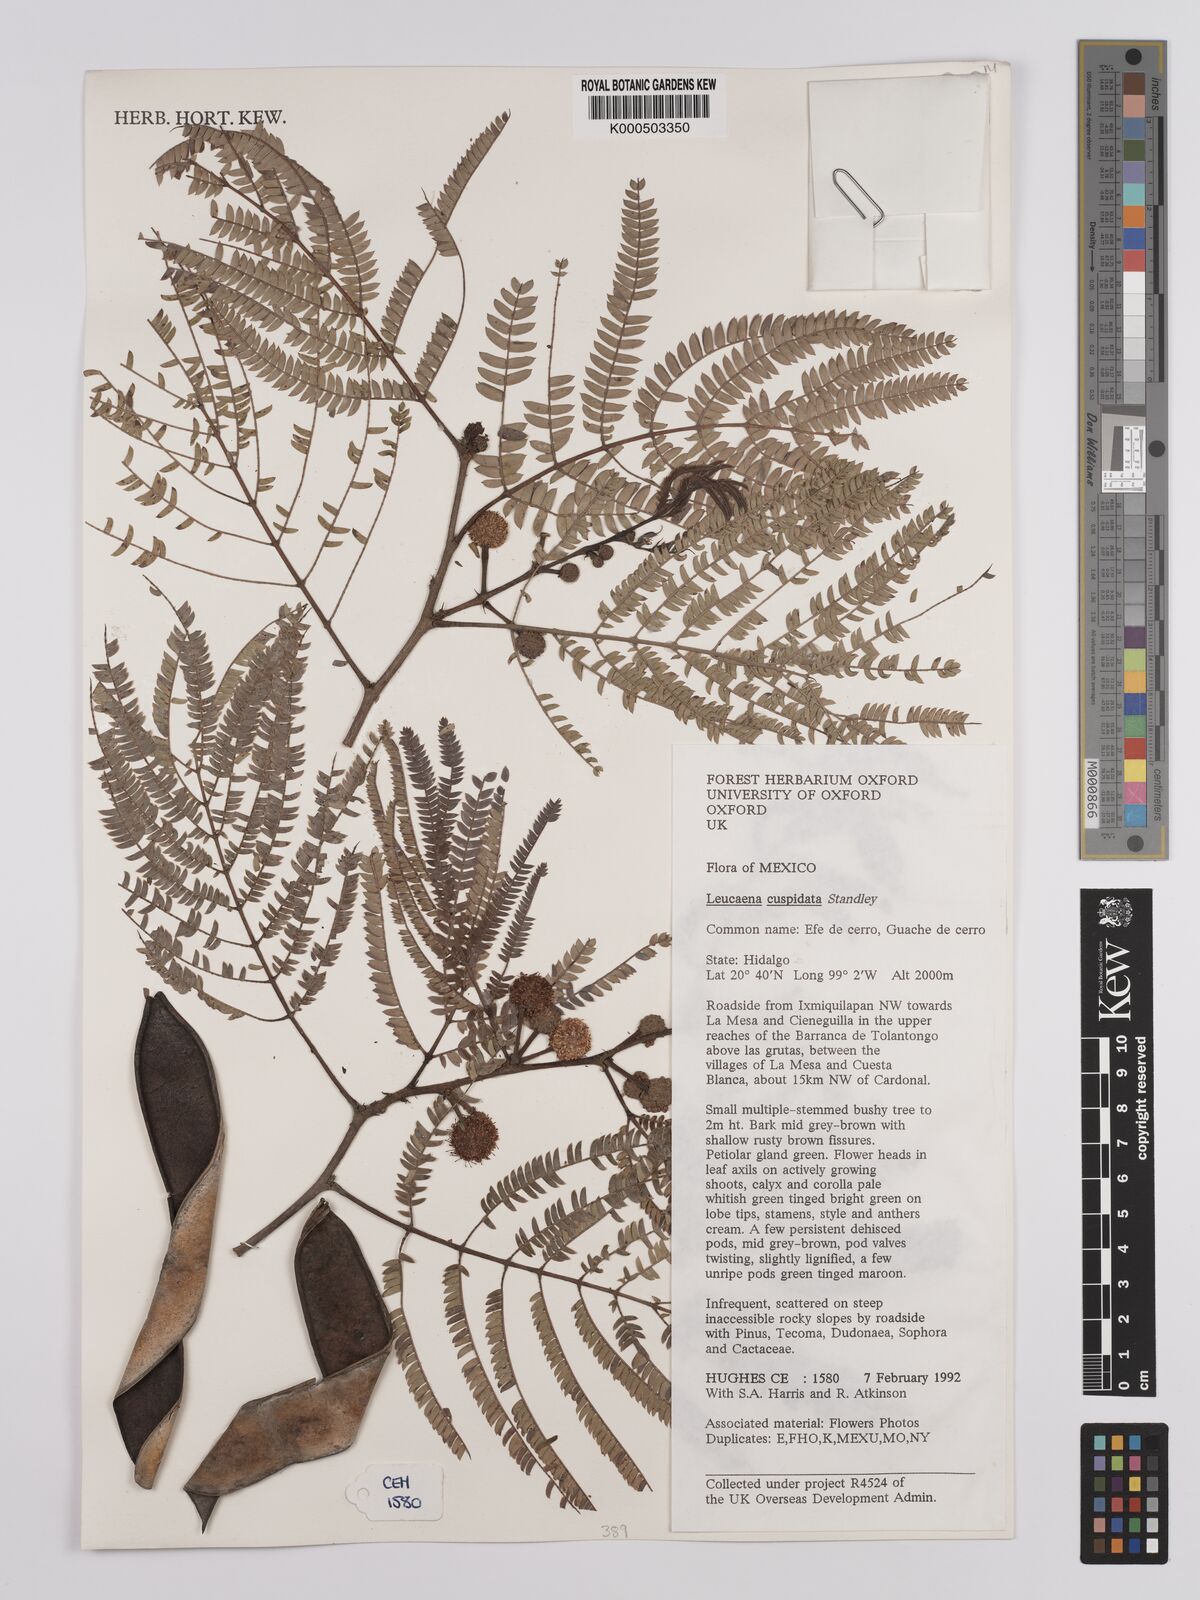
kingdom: Plantae
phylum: Tracheophyta
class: Magnoliopsida
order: Fabales
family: Fabaceae
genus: Leucaena
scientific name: Leucaena cuspidata
